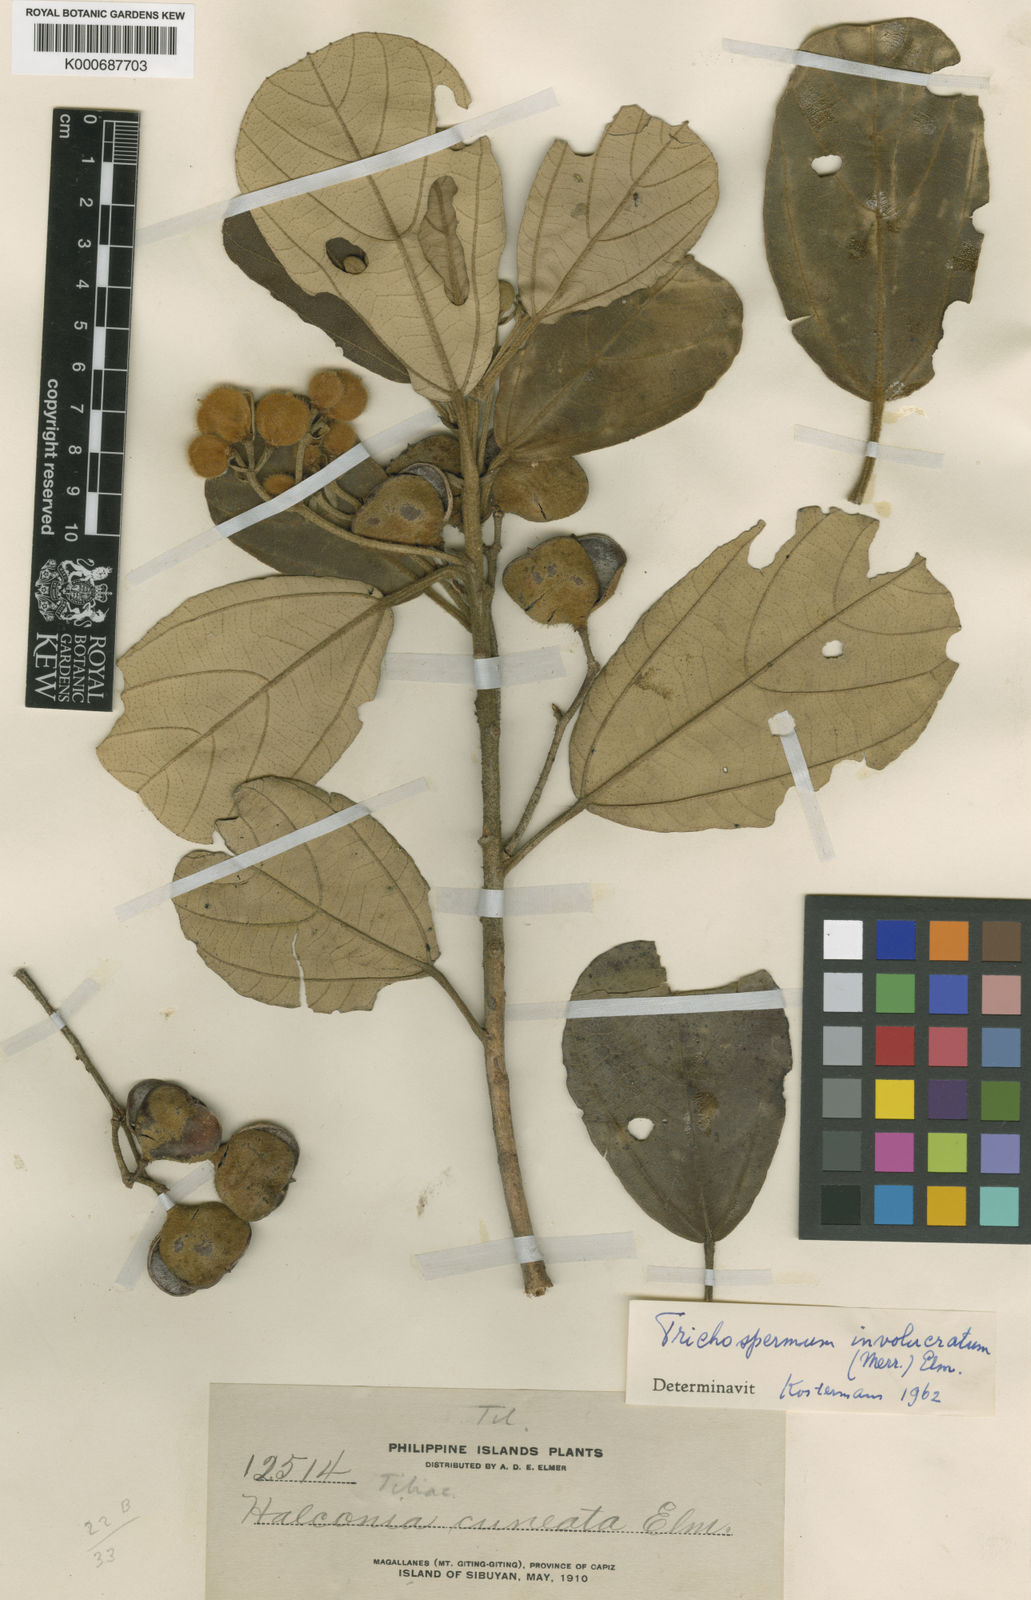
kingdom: Plantae
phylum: Tracheophyta
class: Magnoliopsida
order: Malvales
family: Malvaceae
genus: Trichospermum
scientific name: Trichospermum involucratum
